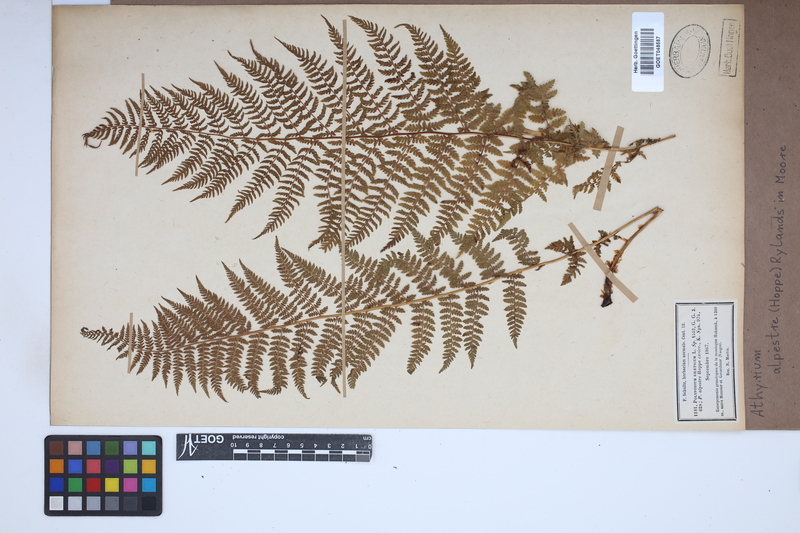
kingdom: Plantae
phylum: Tracheophyta
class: Polypodiopsida
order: Polypodiales
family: Athyriaceae
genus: Pseudathyrium
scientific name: Pseudathyrium alpestre
